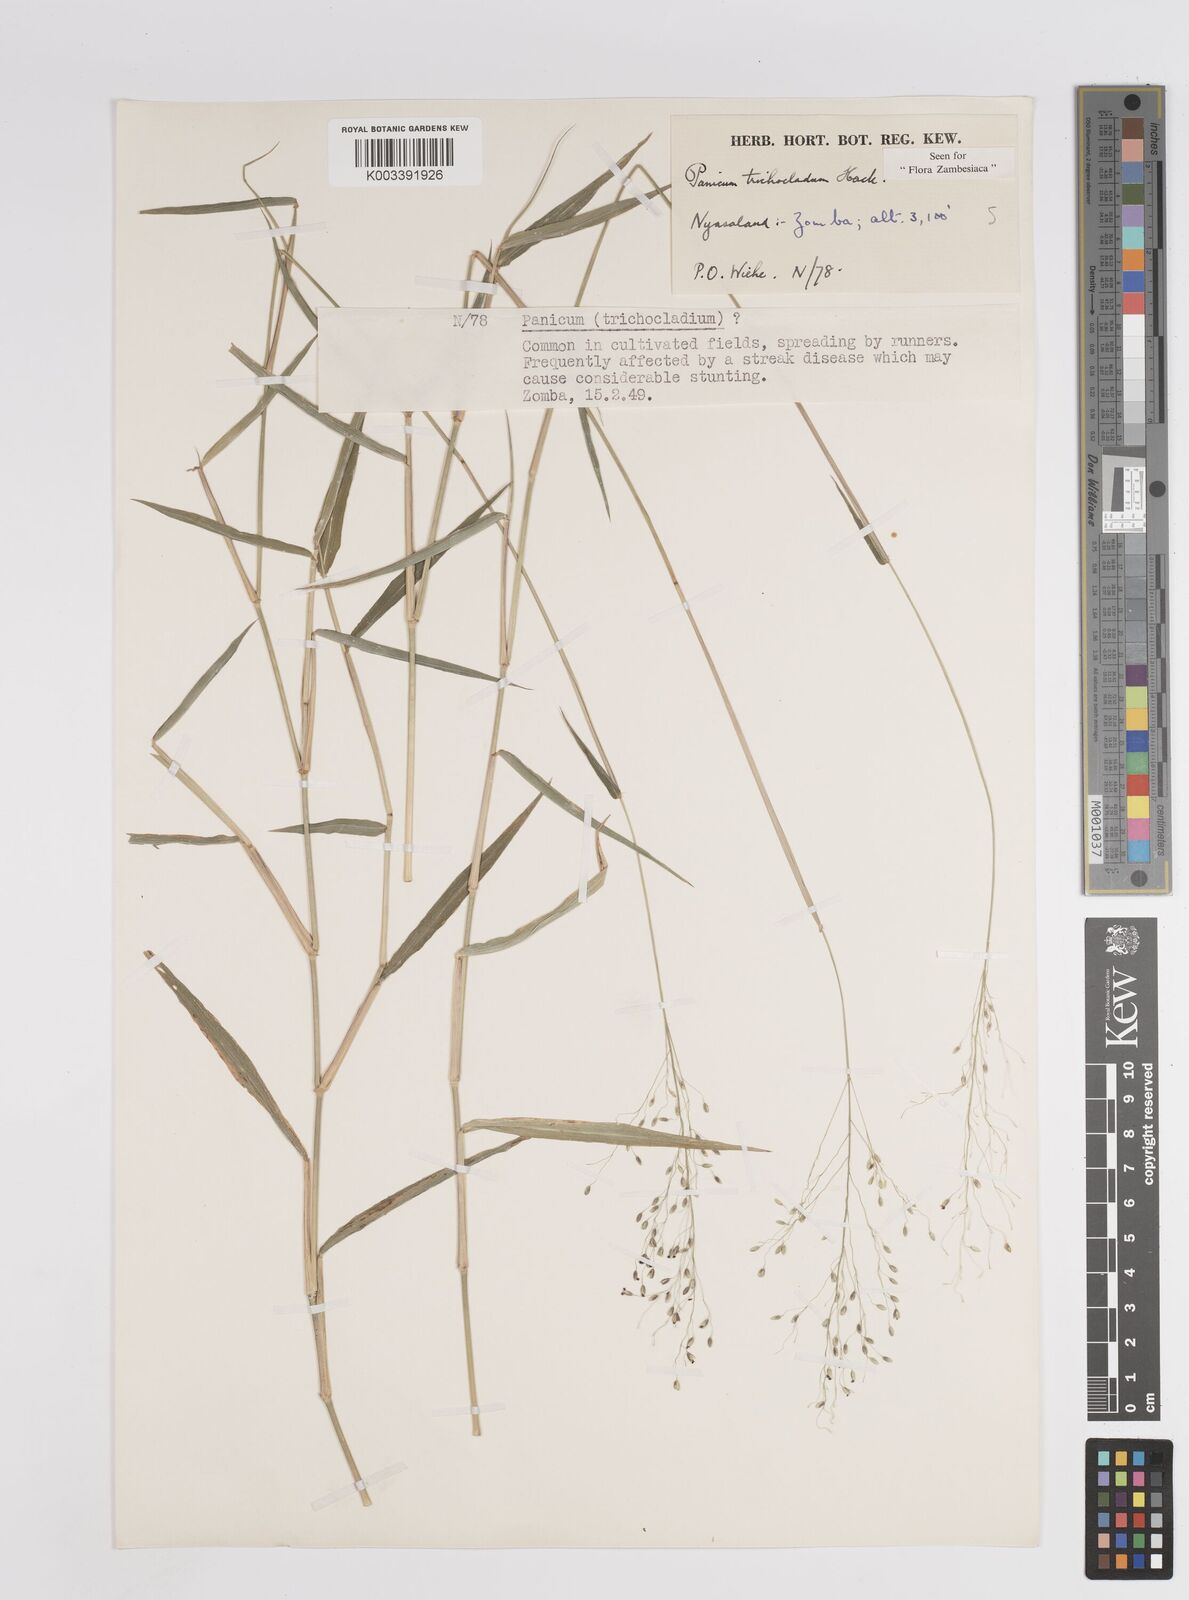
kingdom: Plantae
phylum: Tracheophyta
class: Liliopsida
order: Poales
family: Poaceae
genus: Panicum
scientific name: Panicum trichocladum
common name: Donkey grass
